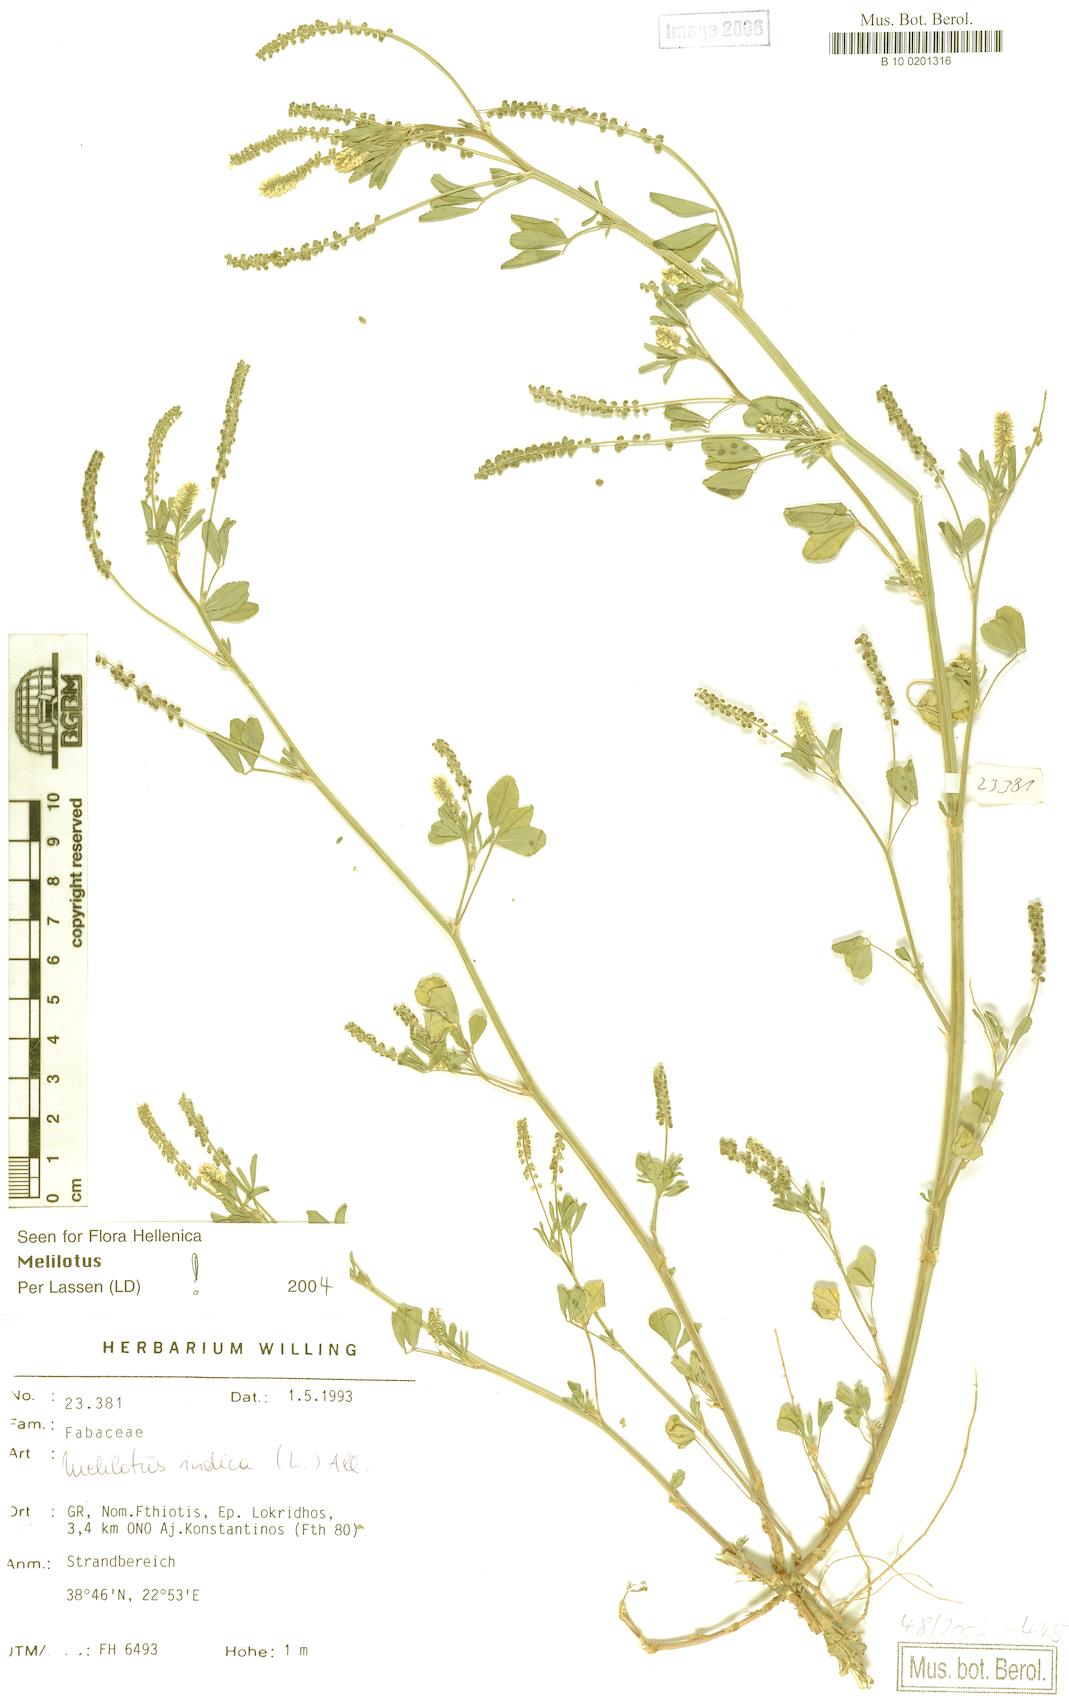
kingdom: Plantae
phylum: Tracheophyta
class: Magnoliopsida
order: Fabales
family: Fabaceae
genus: Melilotus
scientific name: Melilotus indicus
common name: Small melilot
